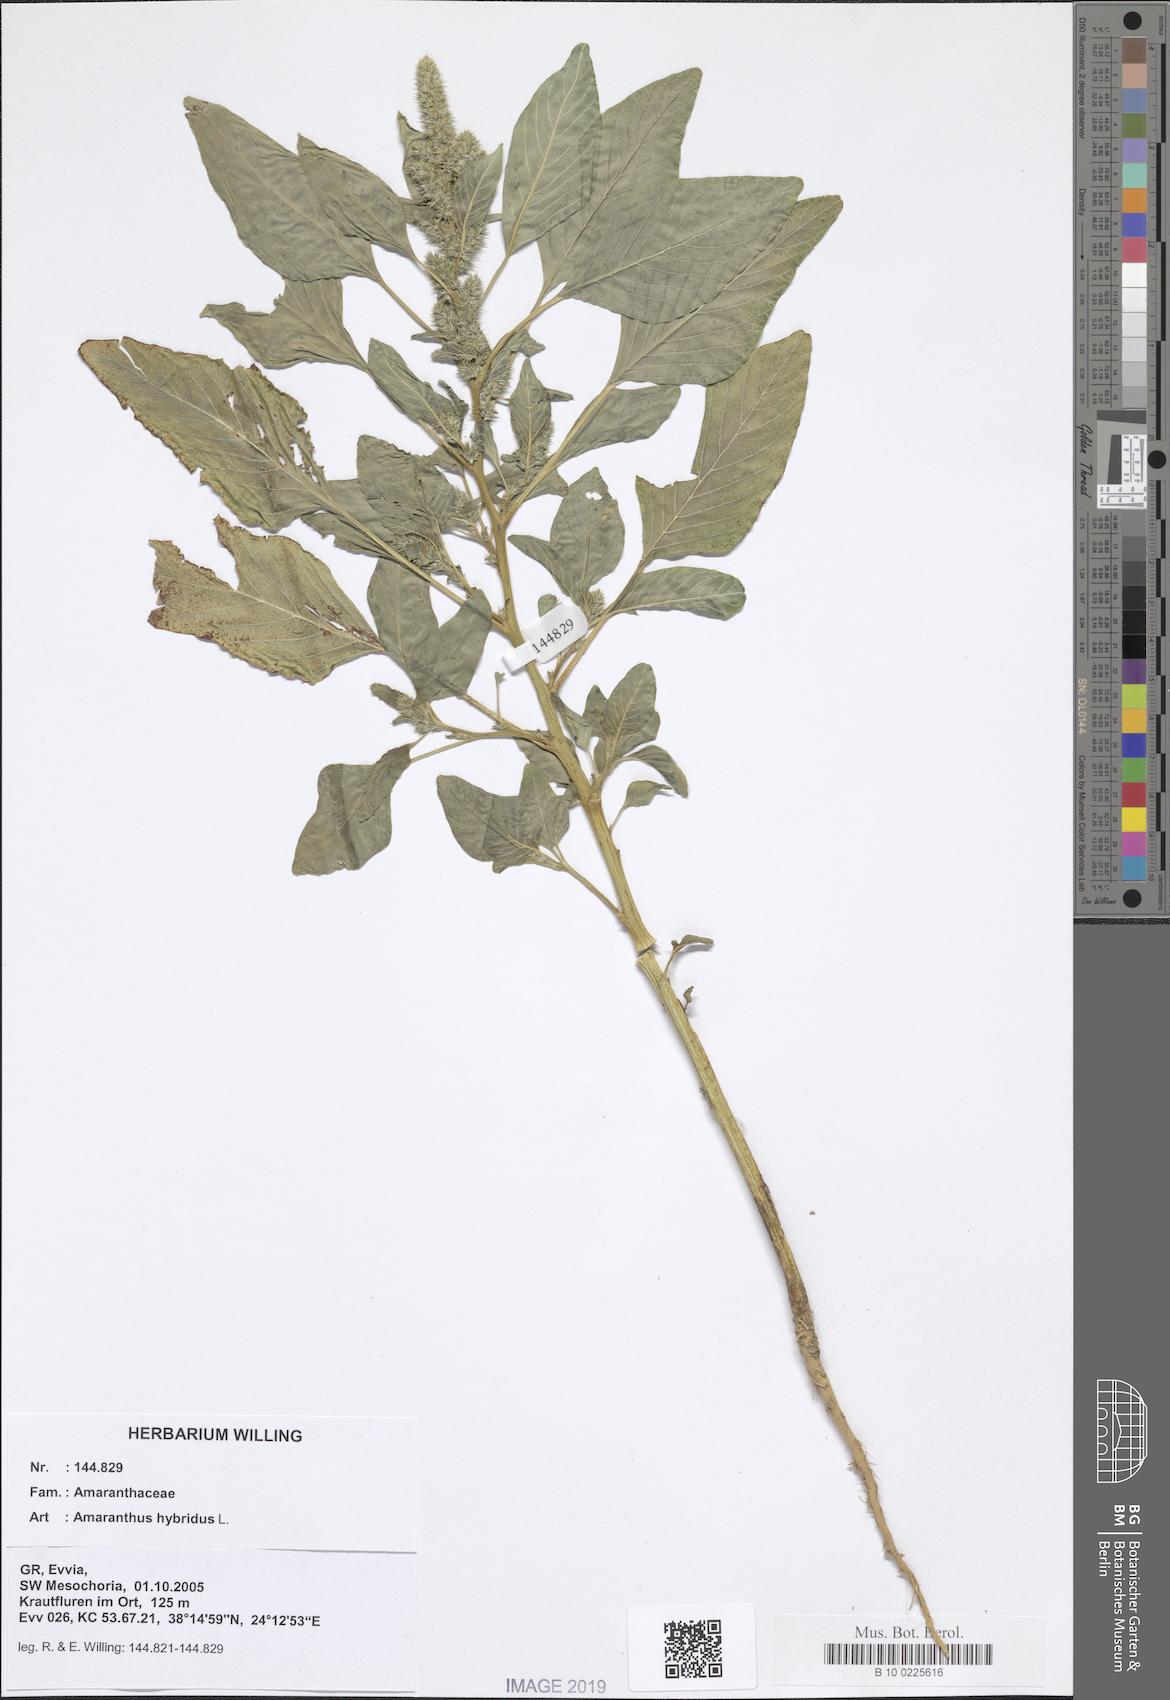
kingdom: Plantae
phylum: Tracheophyta
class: Magnoliopsida
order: Caryophyllales
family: Amaranthaceae
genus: Amaranthus
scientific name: Amaranthus hybridus
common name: Green amaranth
